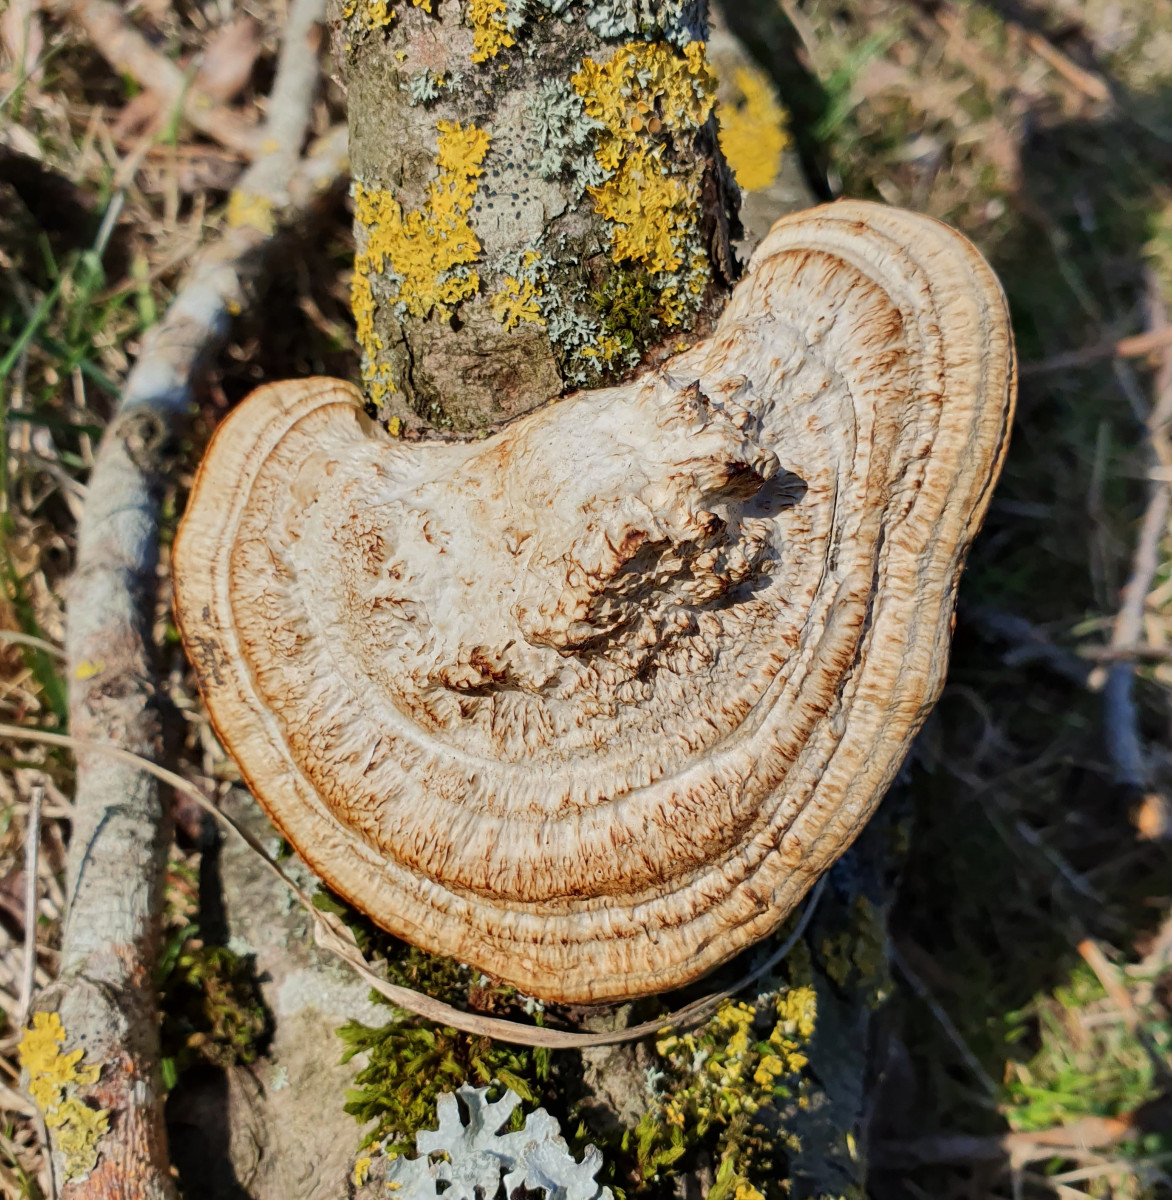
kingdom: Fungi
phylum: Basidiomycota
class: Agaricomycetes
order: Polyporales
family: Polyporaceae
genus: Daedaleopsis
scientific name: Daedaleopsis confragosa
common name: rødmende læderporesvamp
